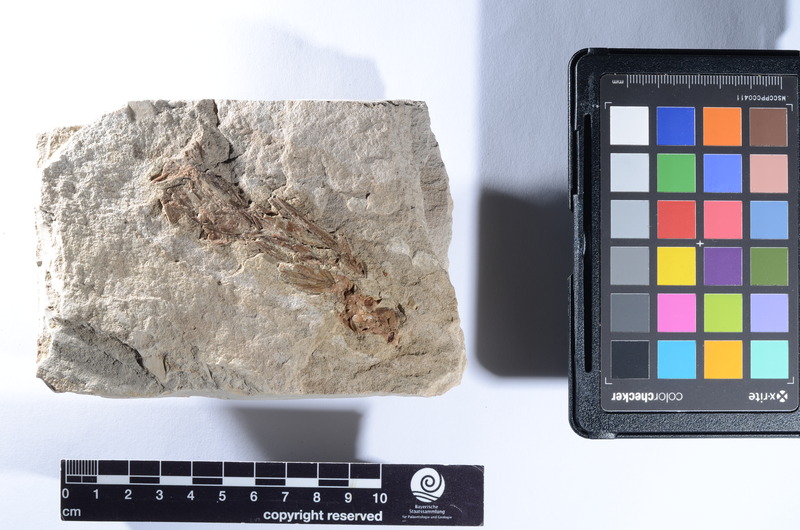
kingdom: Animalia
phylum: Chordata
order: Zeiformes
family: Zeidae
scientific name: Zeidae
